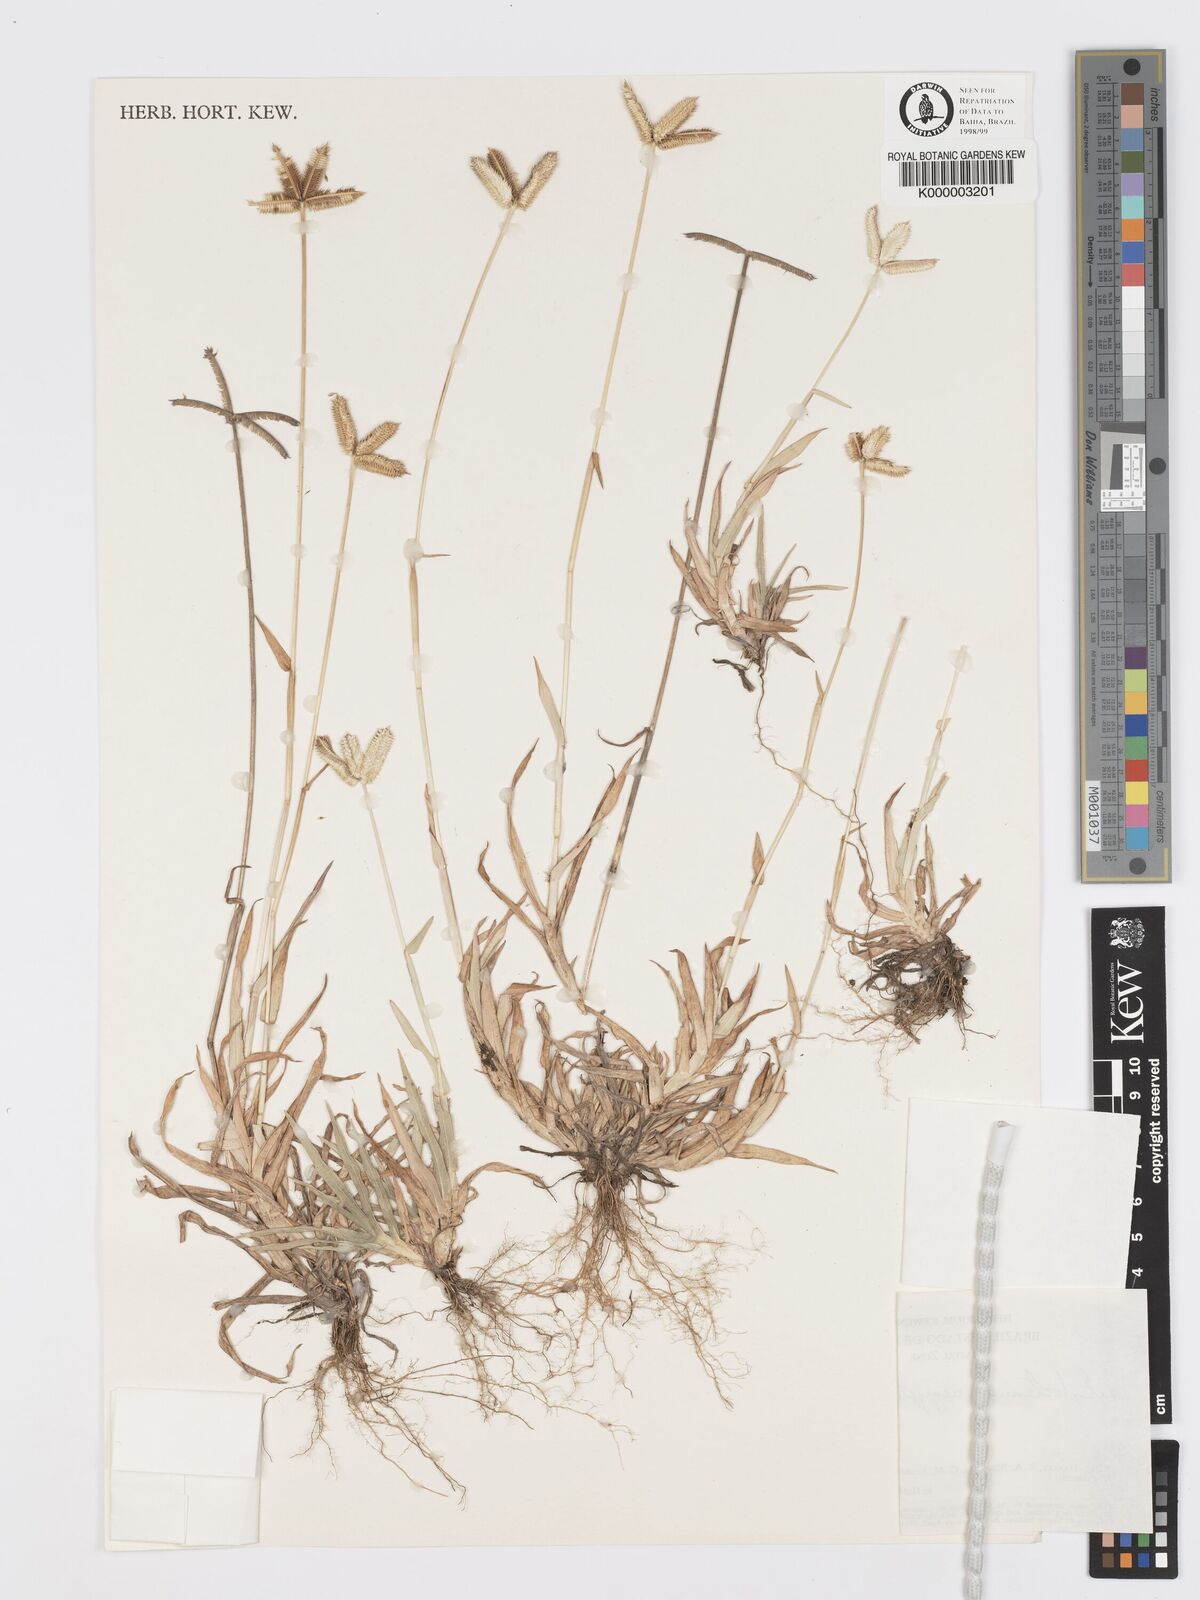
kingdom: Plantae
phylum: Tracheophyta
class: Liliopsida
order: Poales
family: Poaceae
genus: Dactyloctenium
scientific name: Dactyloctenium aegyptium
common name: Egyptian grass
